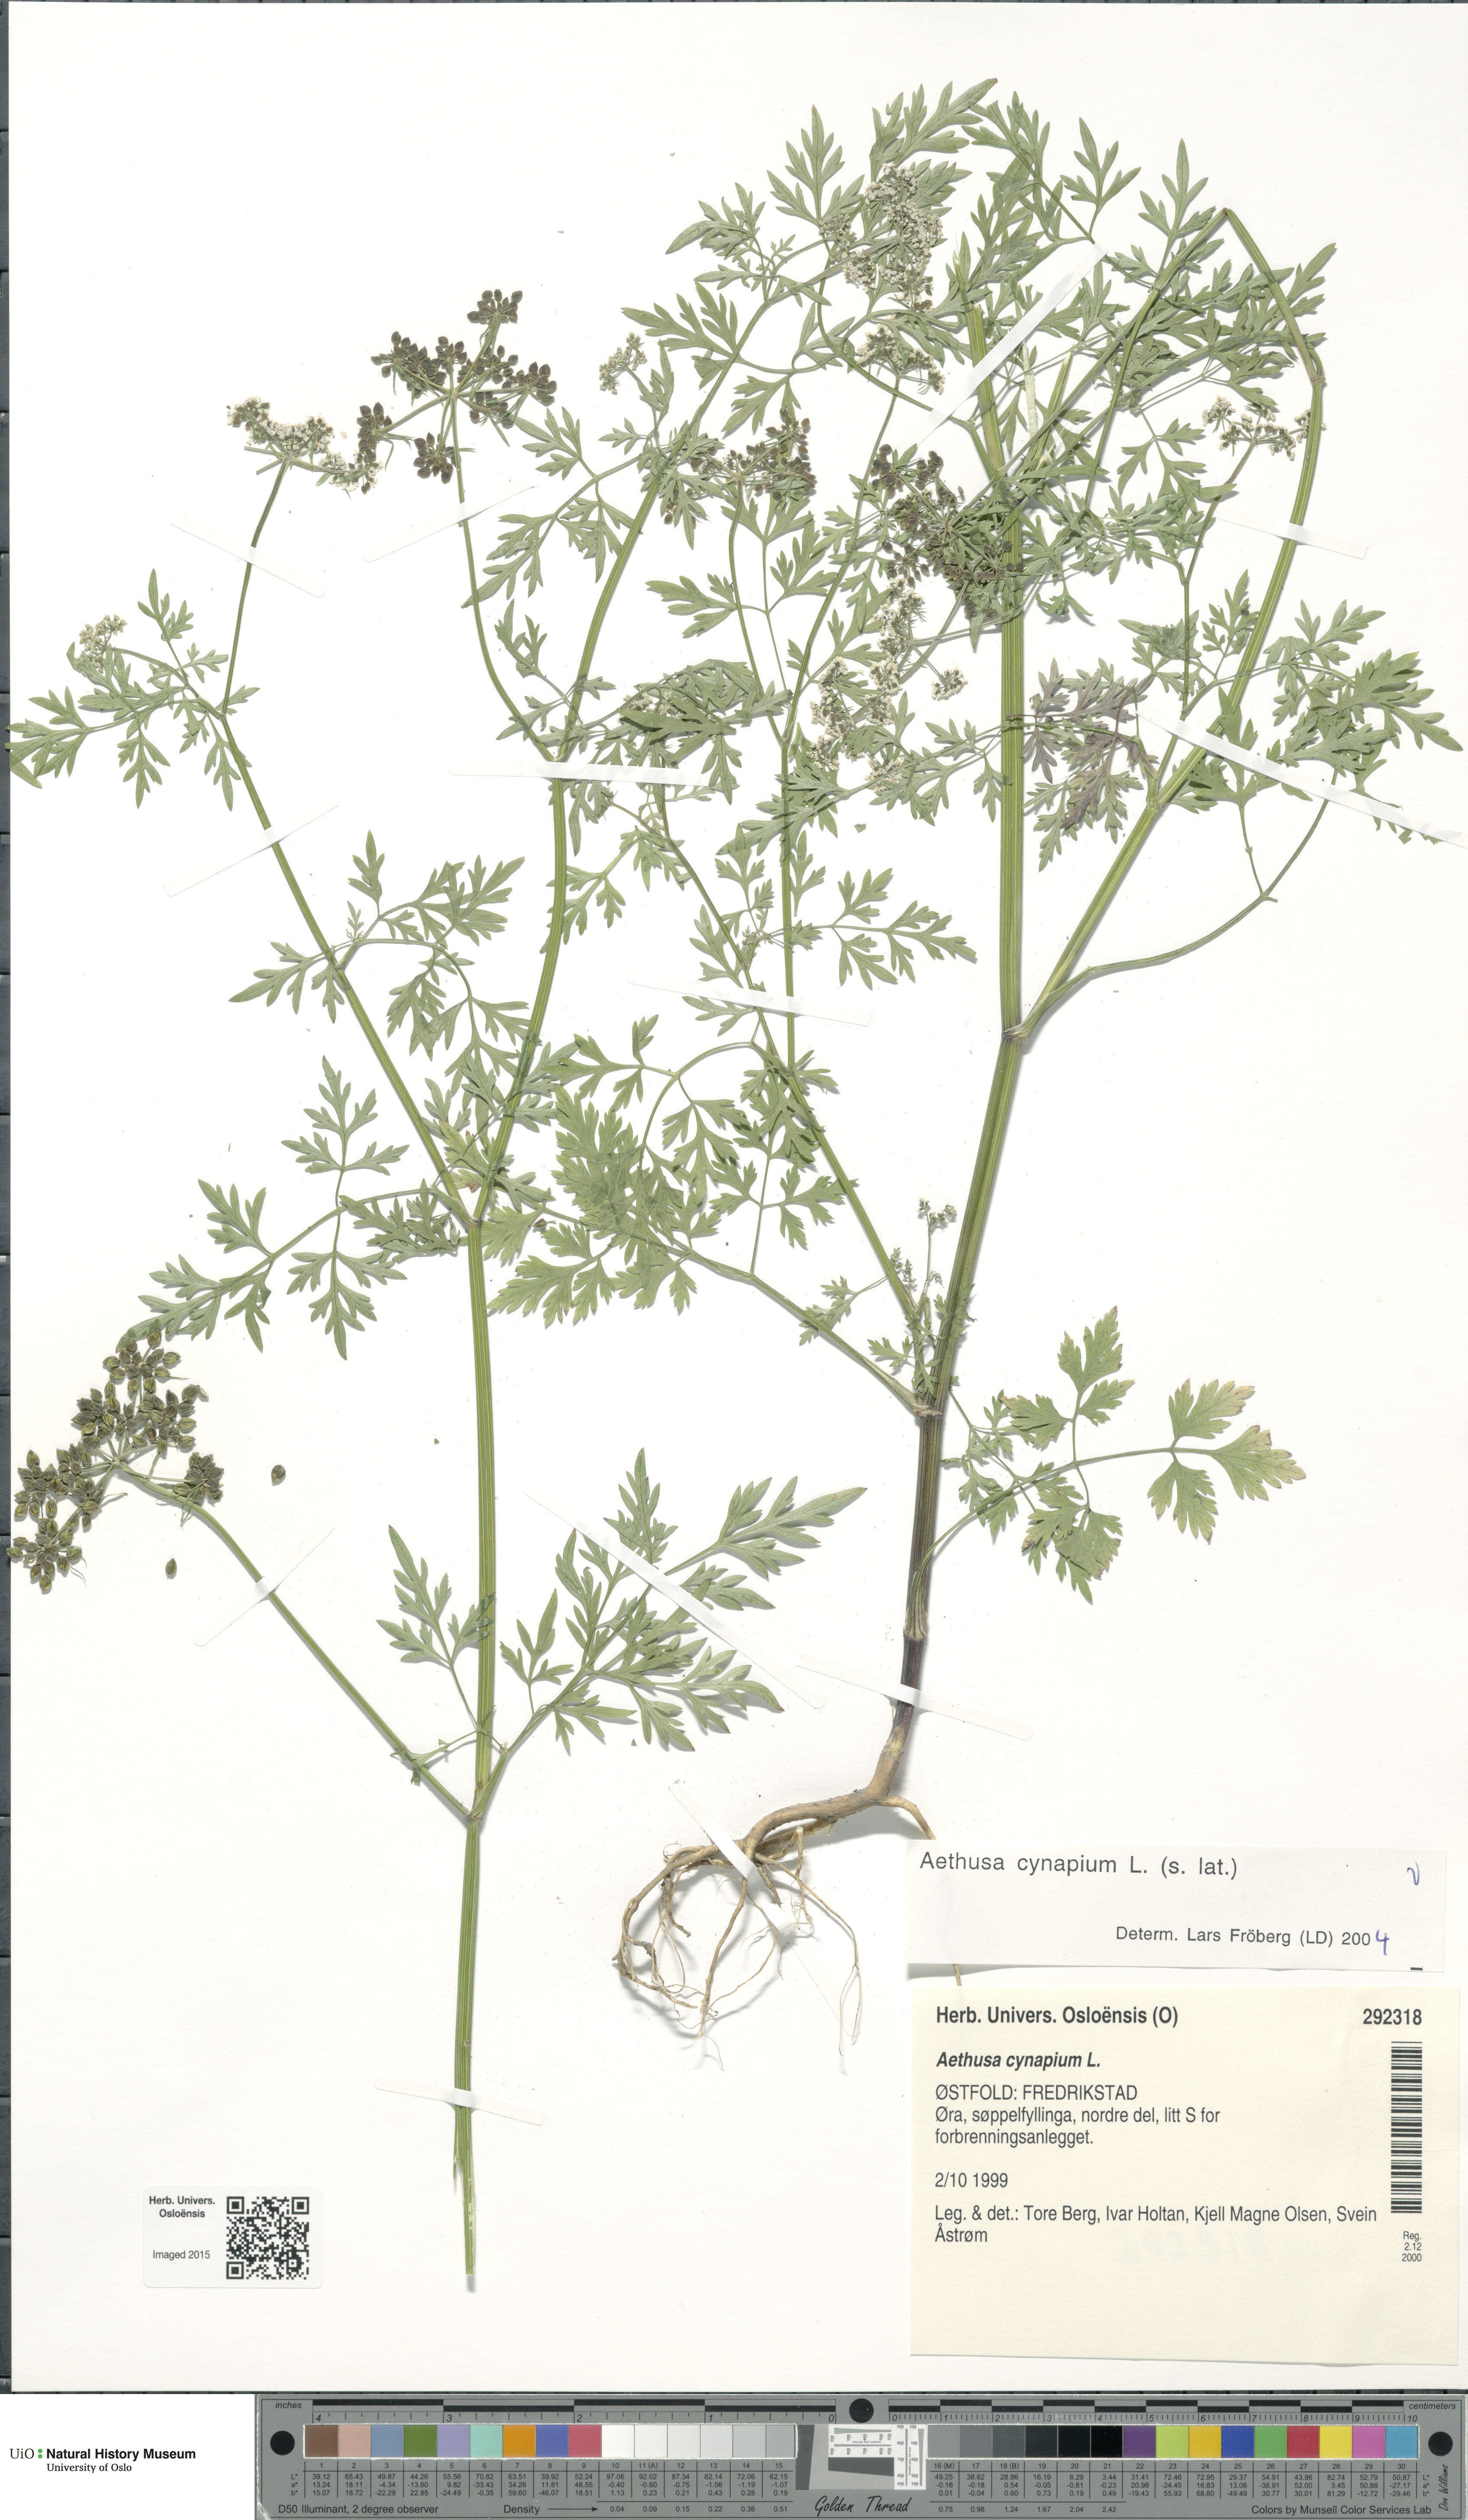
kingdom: Plantae
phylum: Tracheophyta
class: Magnoliopsida
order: Apiales
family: Apiaceae
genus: Aethusa
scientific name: Aethusa cynapium
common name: Fool's parsley
